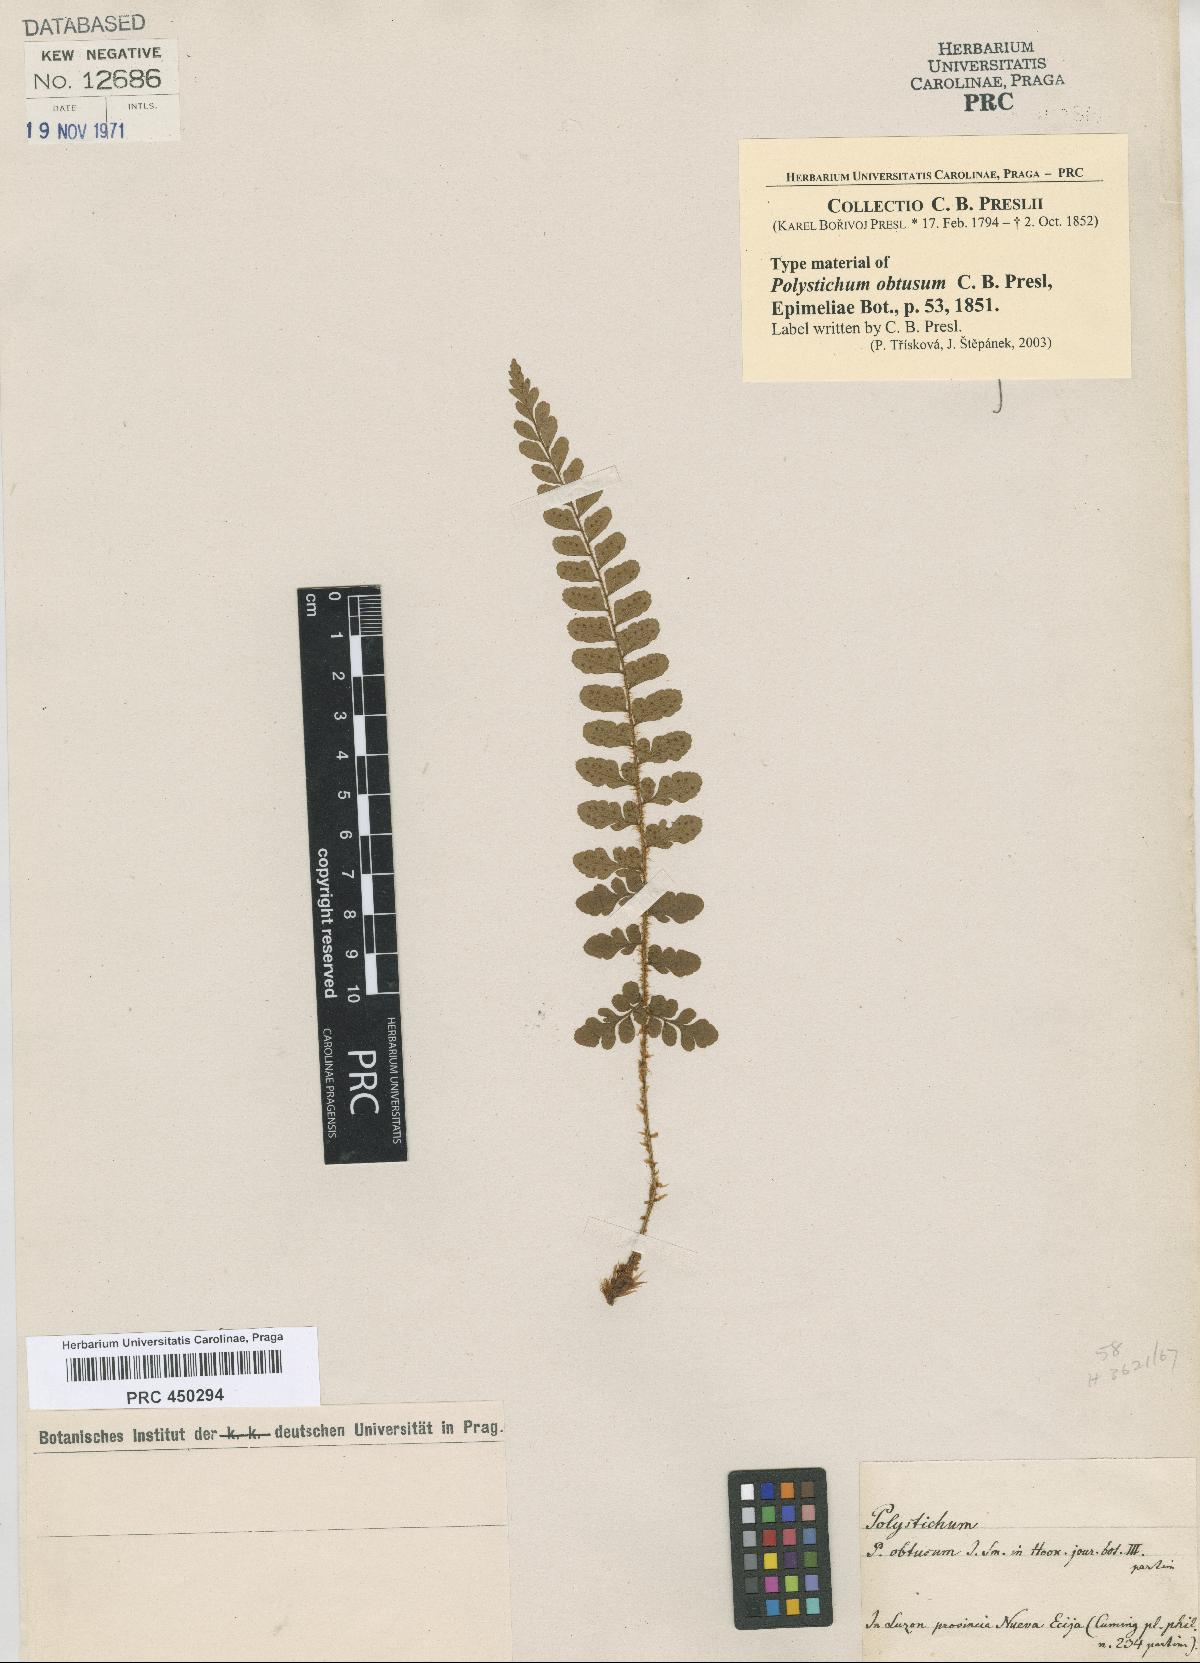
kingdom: Plantae
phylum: Tracheophyta
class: Polypodiopsida
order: Polypodiales
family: Dryopteridaceae
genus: Polystichum
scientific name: Polystichum obtusum
